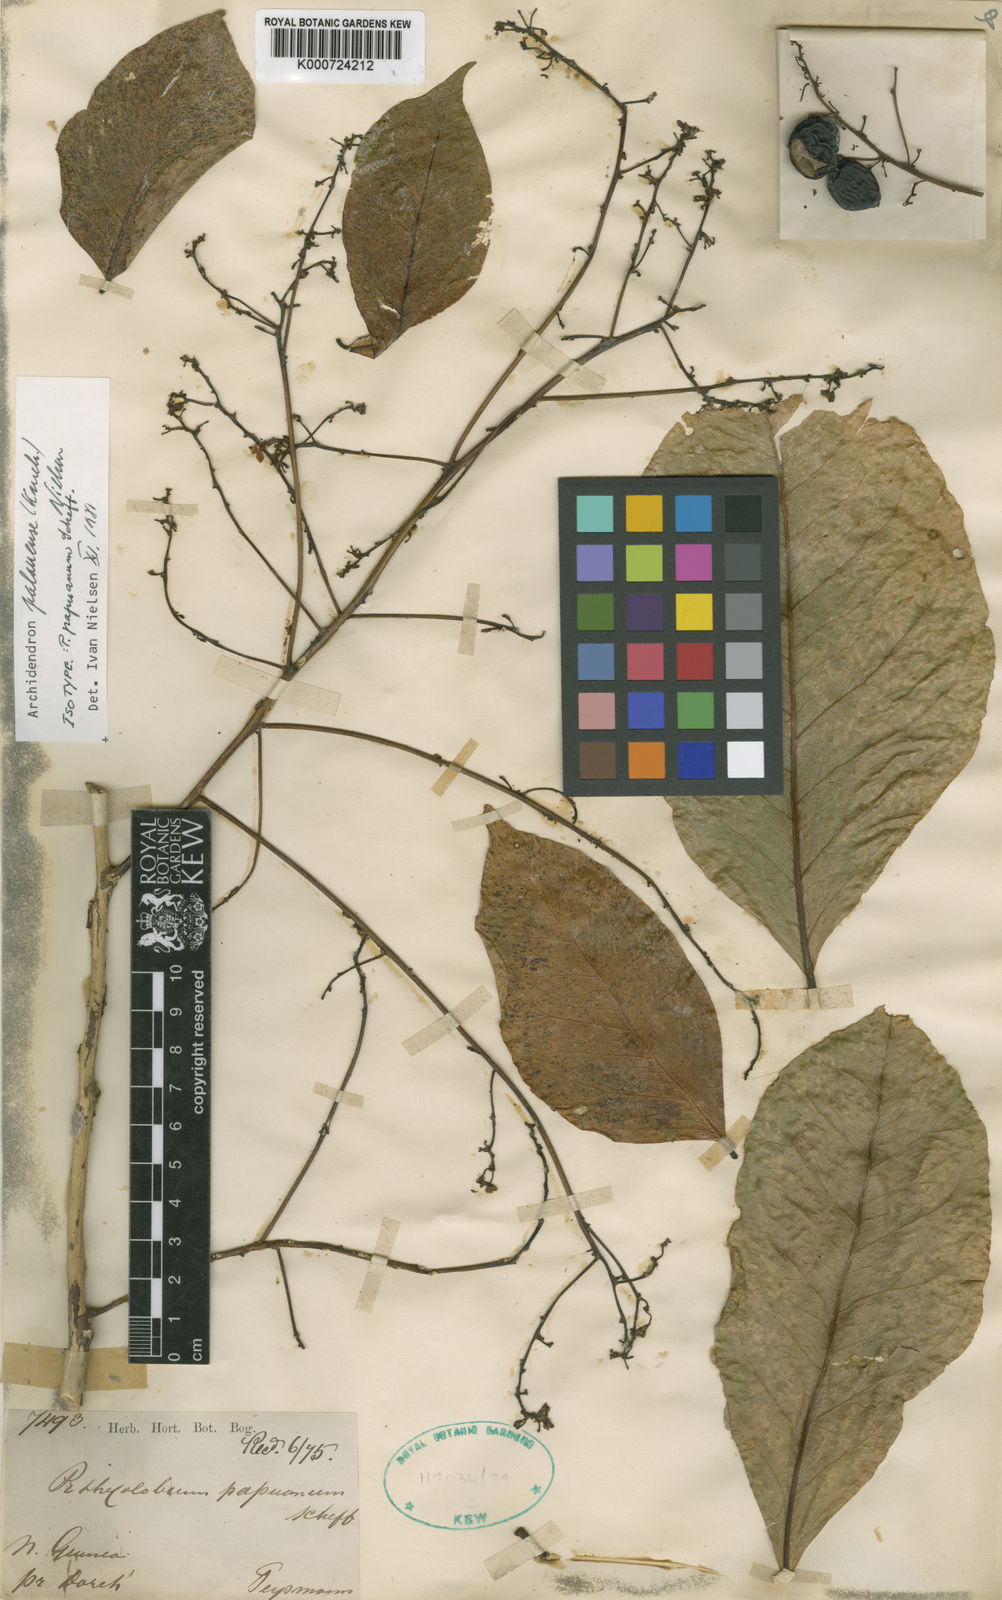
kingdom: Plantae
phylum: Tracheophyta
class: Magnoliopsida
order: Fabales
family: Fabaceae
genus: Archidendron
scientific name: Archidendron palauense
